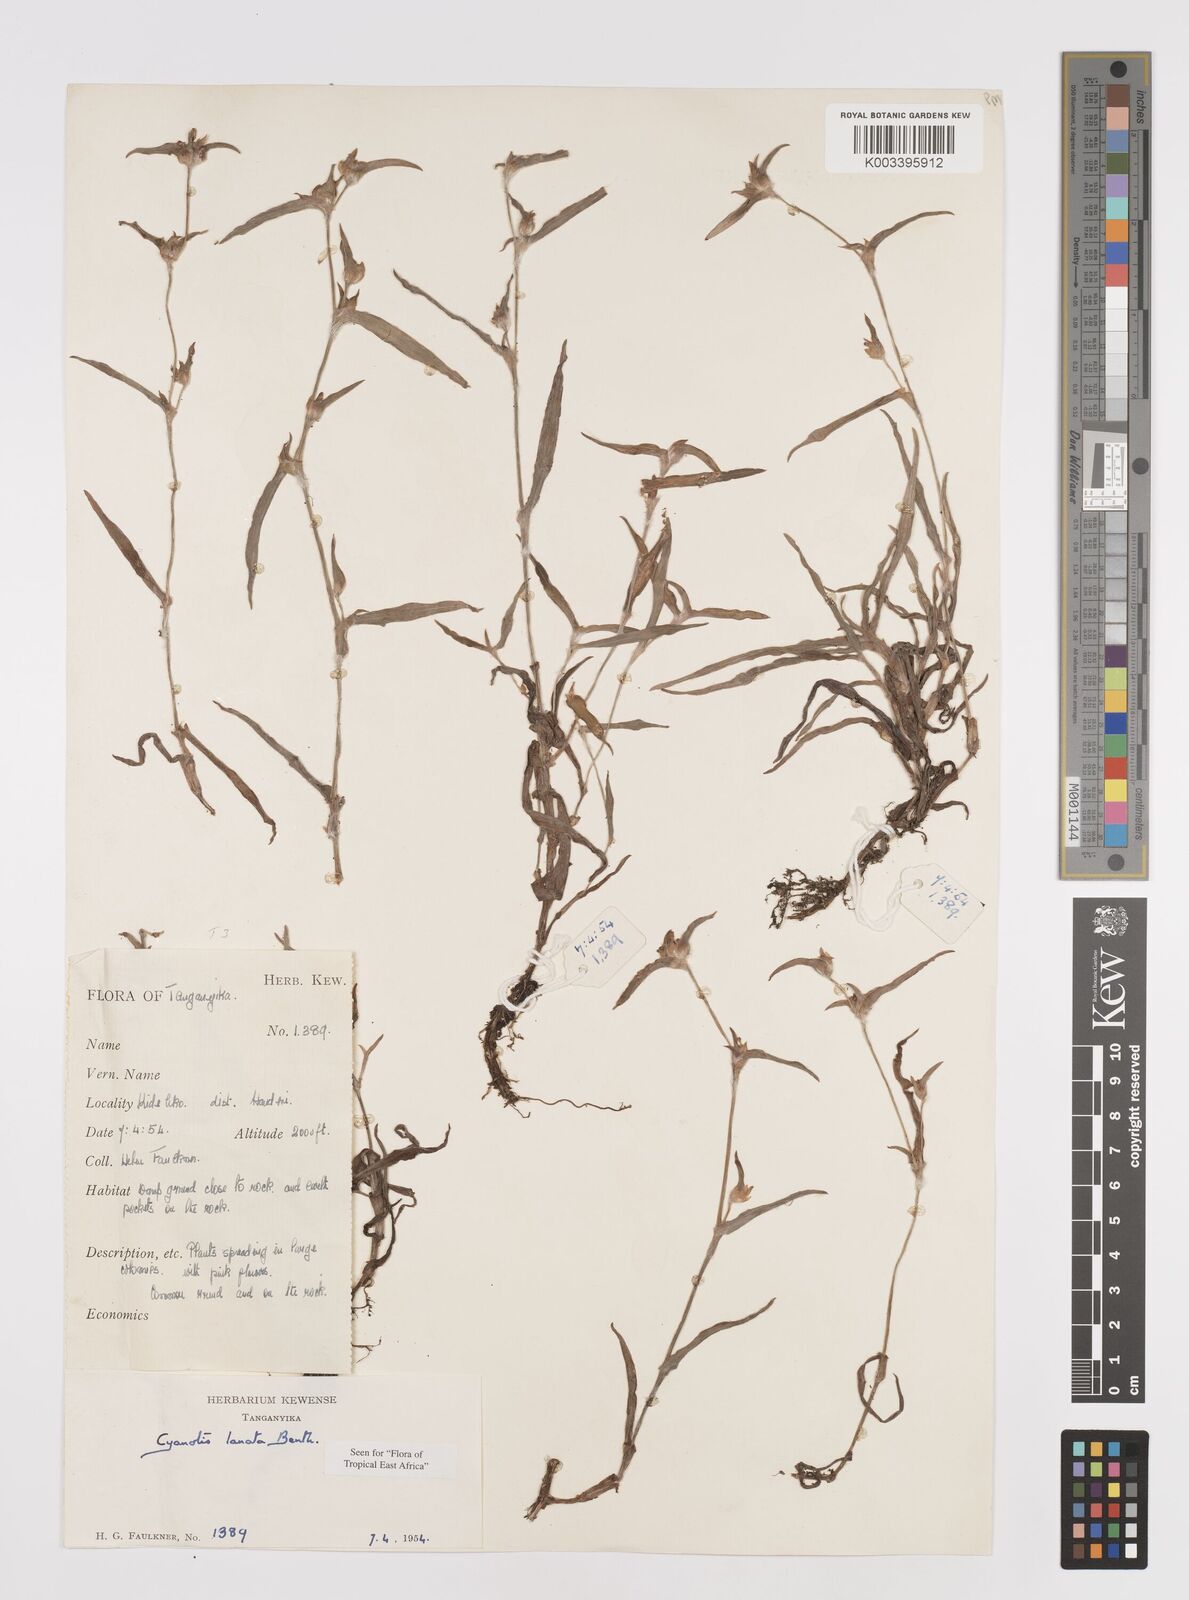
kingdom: Plantae
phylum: Tracheophyta
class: Liliopsida
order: Commelinales
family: Commelinaceae
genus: Cyanotis
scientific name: Cyanotis lanata
